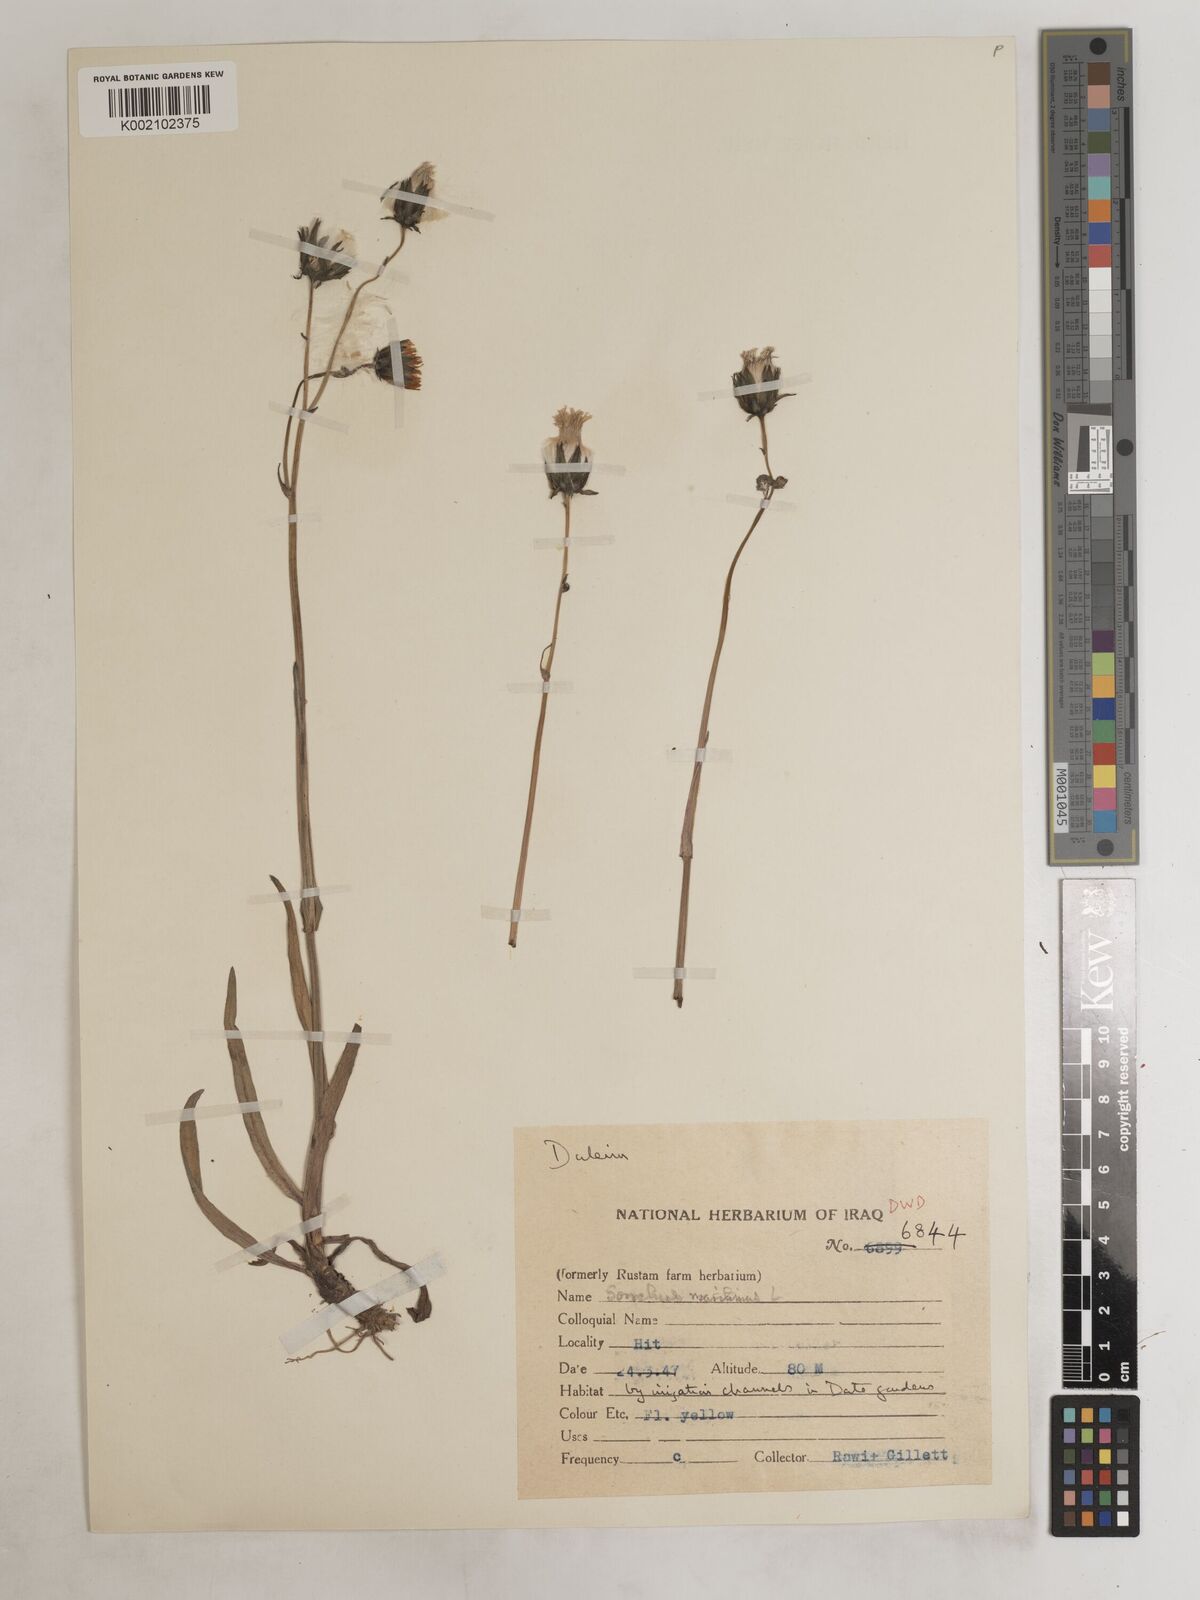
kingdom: Plantae
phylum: Tracheophyta
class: Magnoliopsida
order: Asterales
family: Asteraceae
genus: Sonchus
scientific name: Sonchus maritimus
